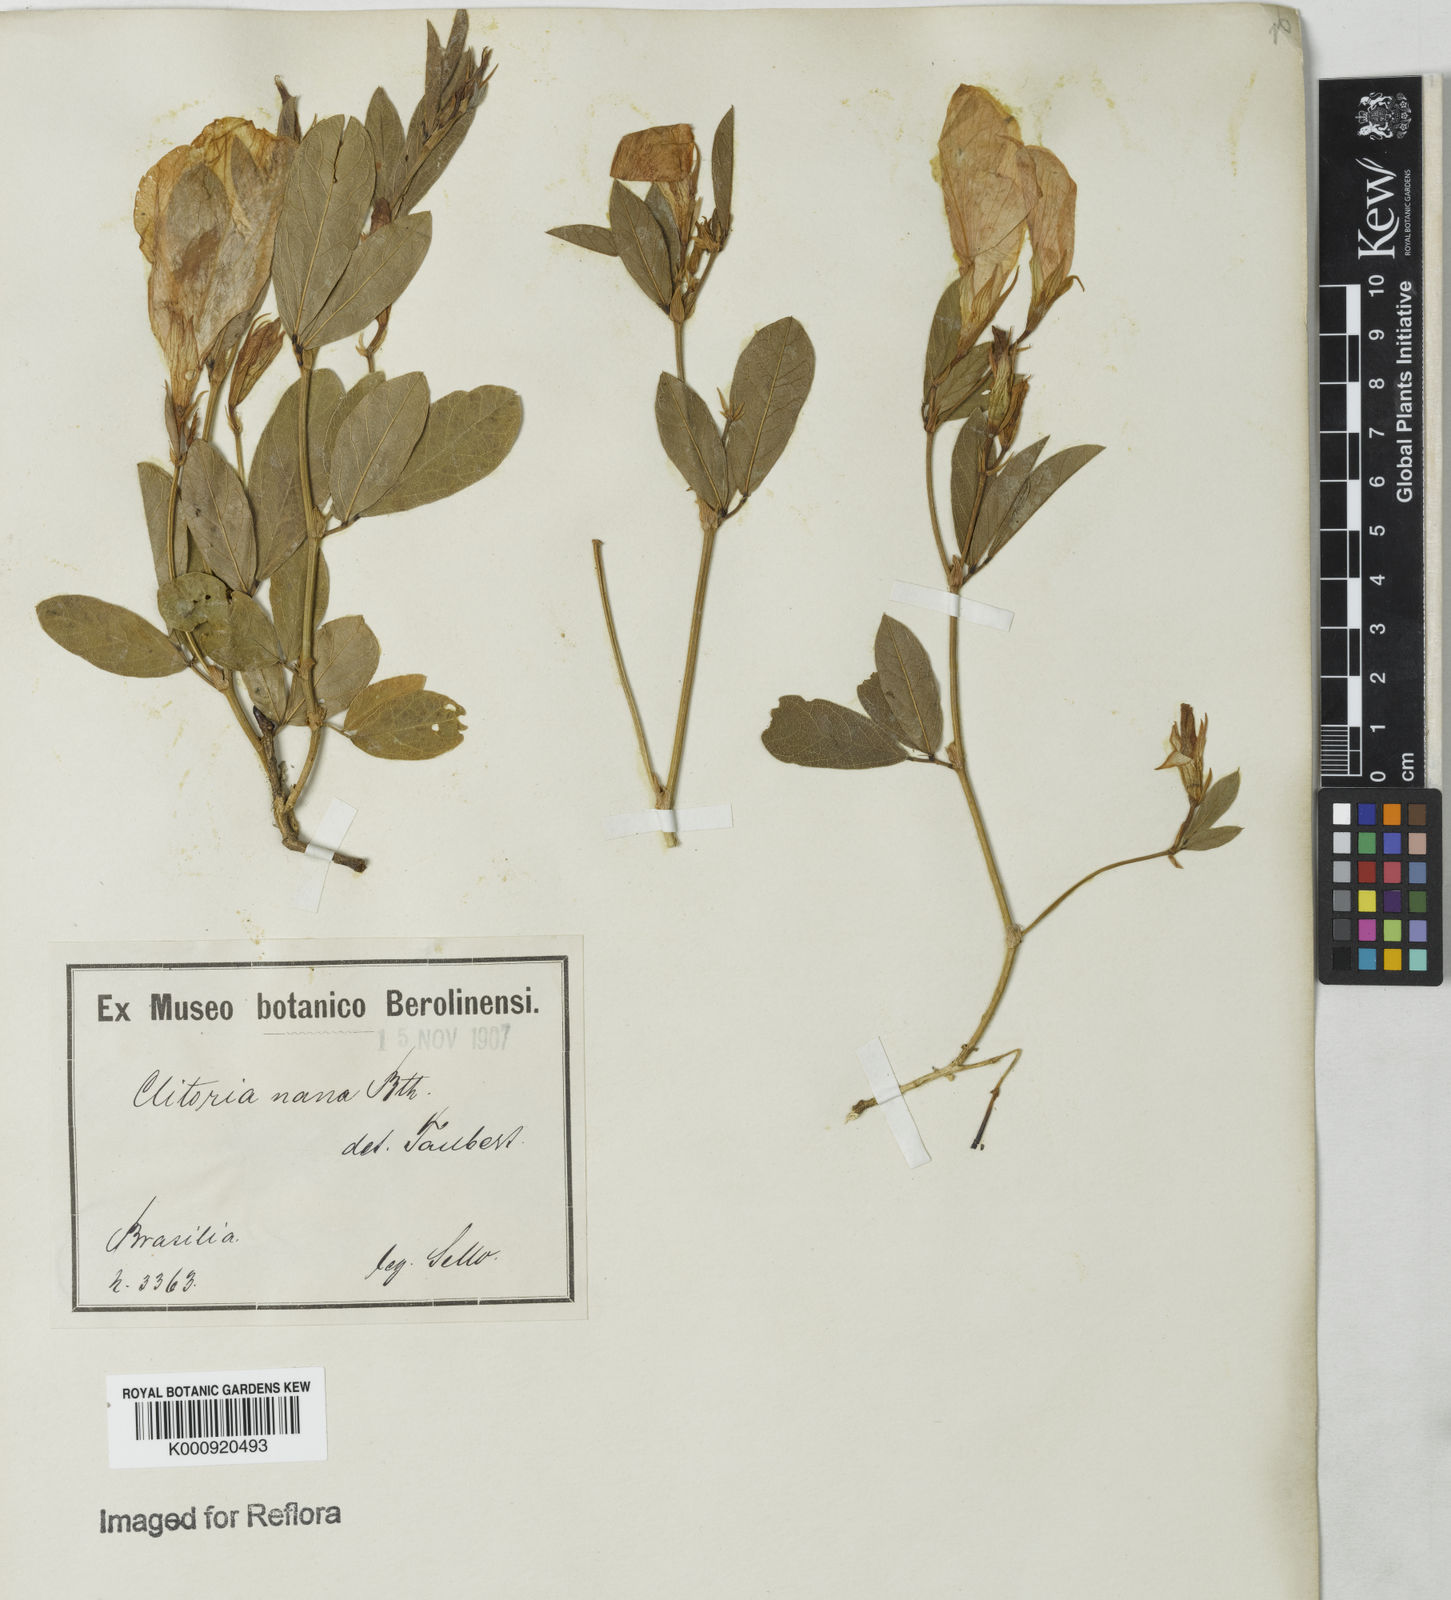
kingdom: Plantae
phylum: Tracheophyta
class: Magnoliopsida
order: Fabales
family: Fabaceae
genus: Clitoria
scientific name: Clitoria nana
